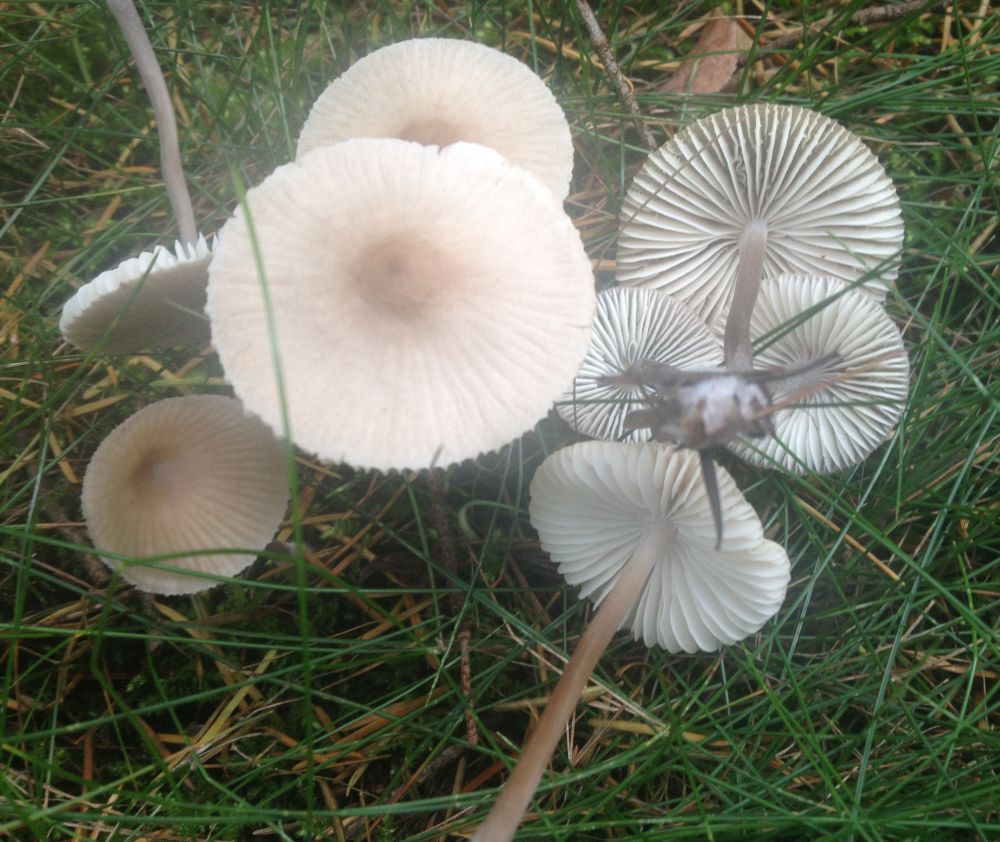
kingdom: Fungi
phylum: Basidiomycota
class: Agaricomycetes
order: Agaricales
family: Mycenaceae
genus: Mycena
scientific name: Mycena zephirus
